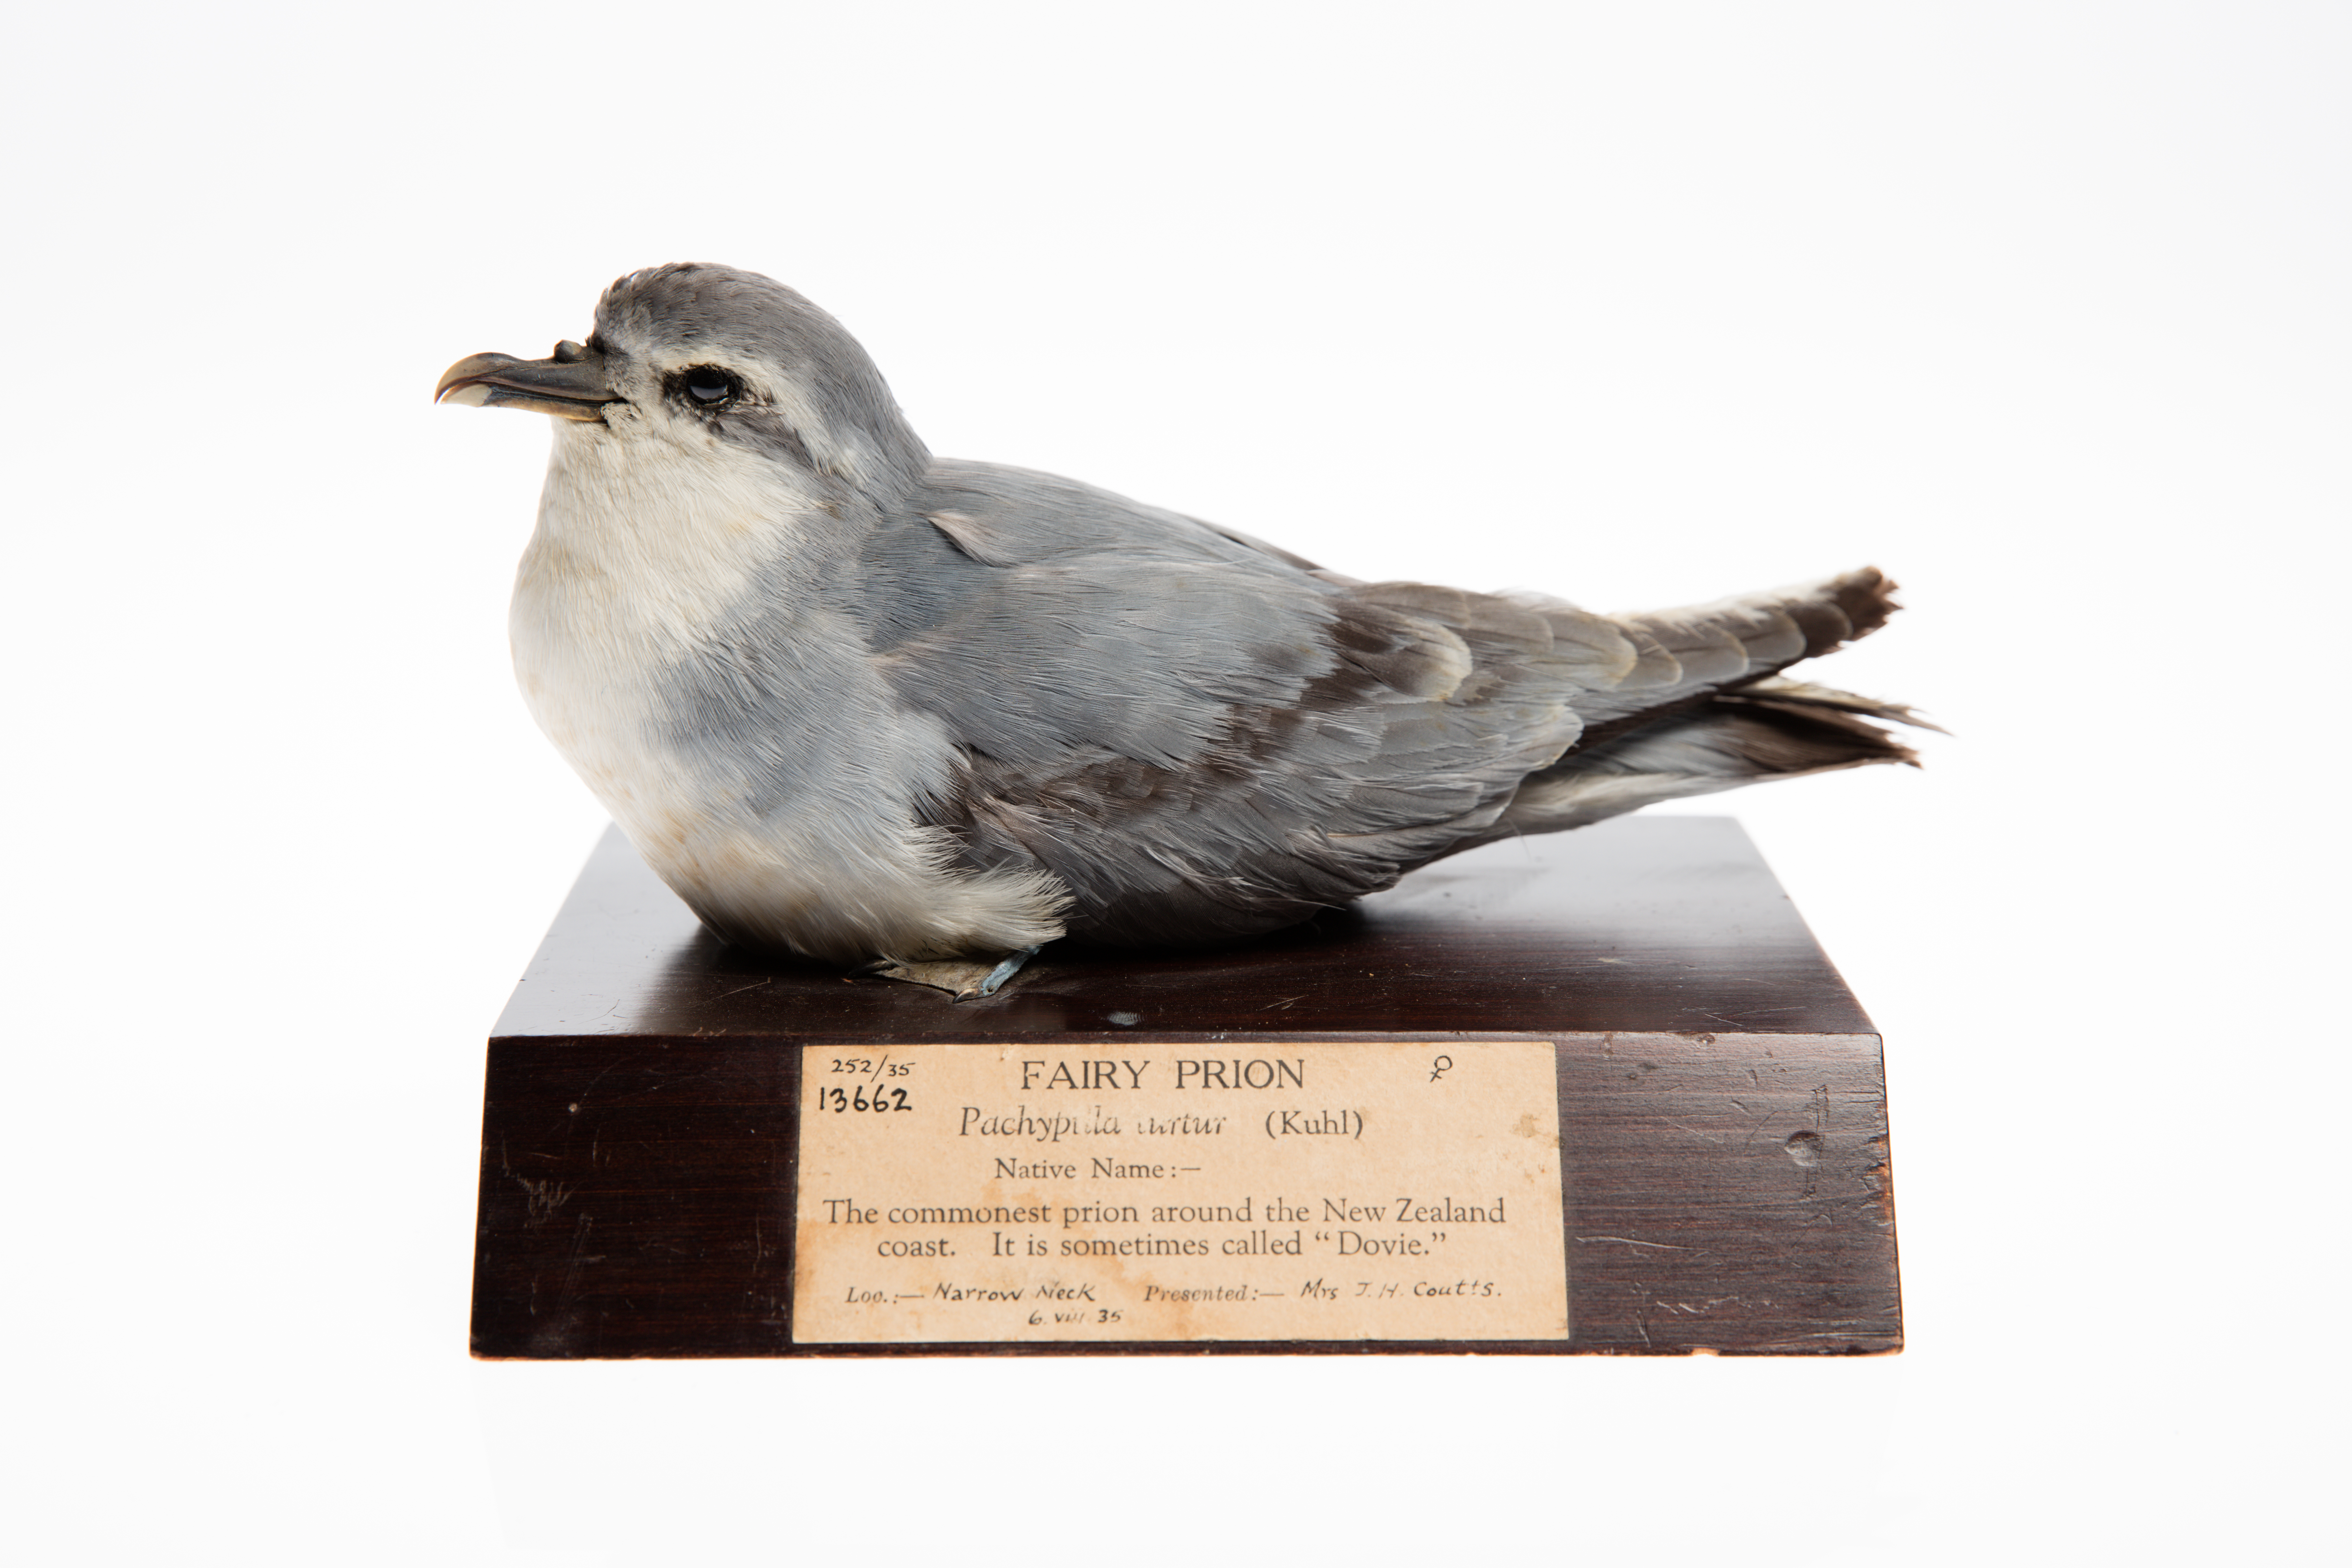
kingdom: Animalia
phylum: Chordata
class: Aves
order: Procellariiformes
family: Procellariidae
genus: Pachyptila
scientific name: Pachyptila turtur
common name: Fairy prion
